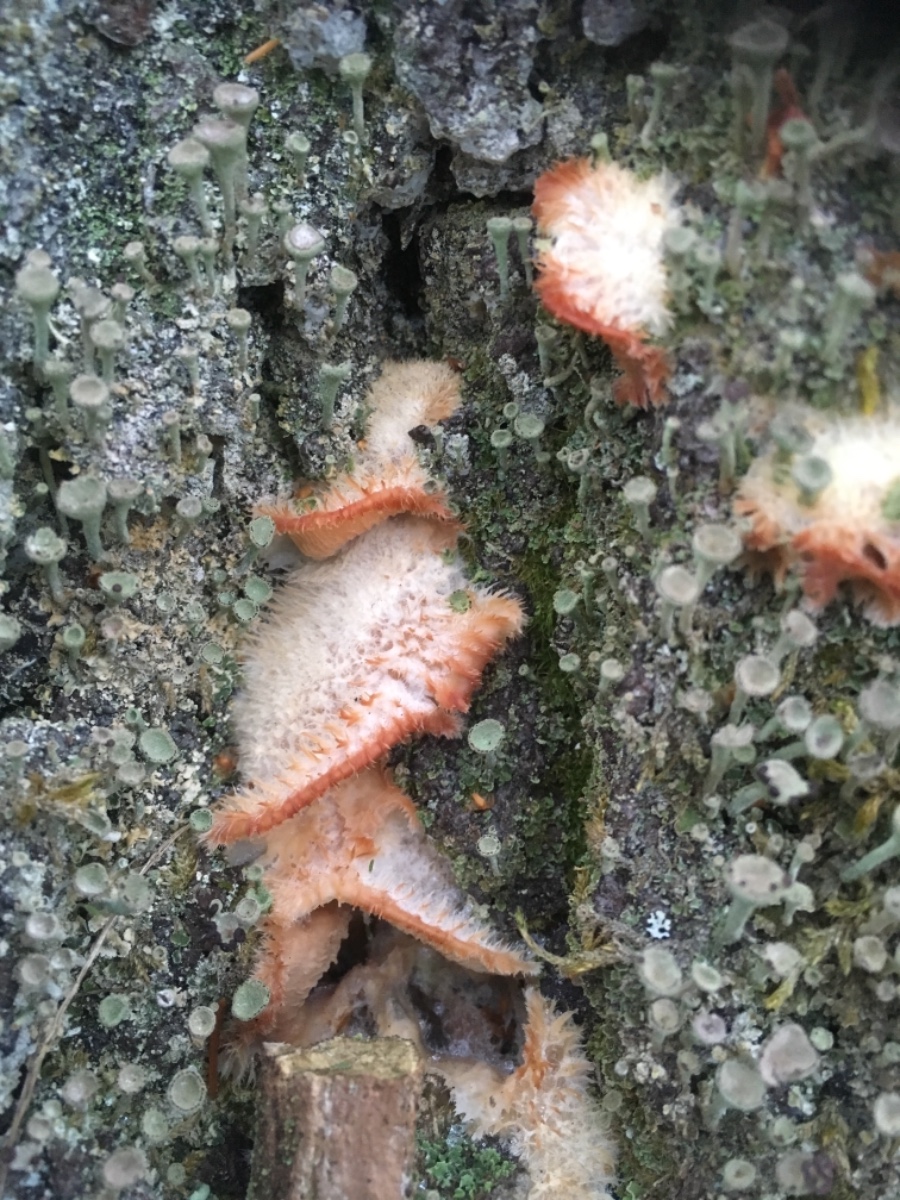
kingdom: Fungi
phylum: Basidiomycota
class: Agaricomycetes
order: Polyporales
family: Meruliaceae
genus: Phlebia
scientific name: Phlebia tremellosa
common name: bævrende åresvamp
